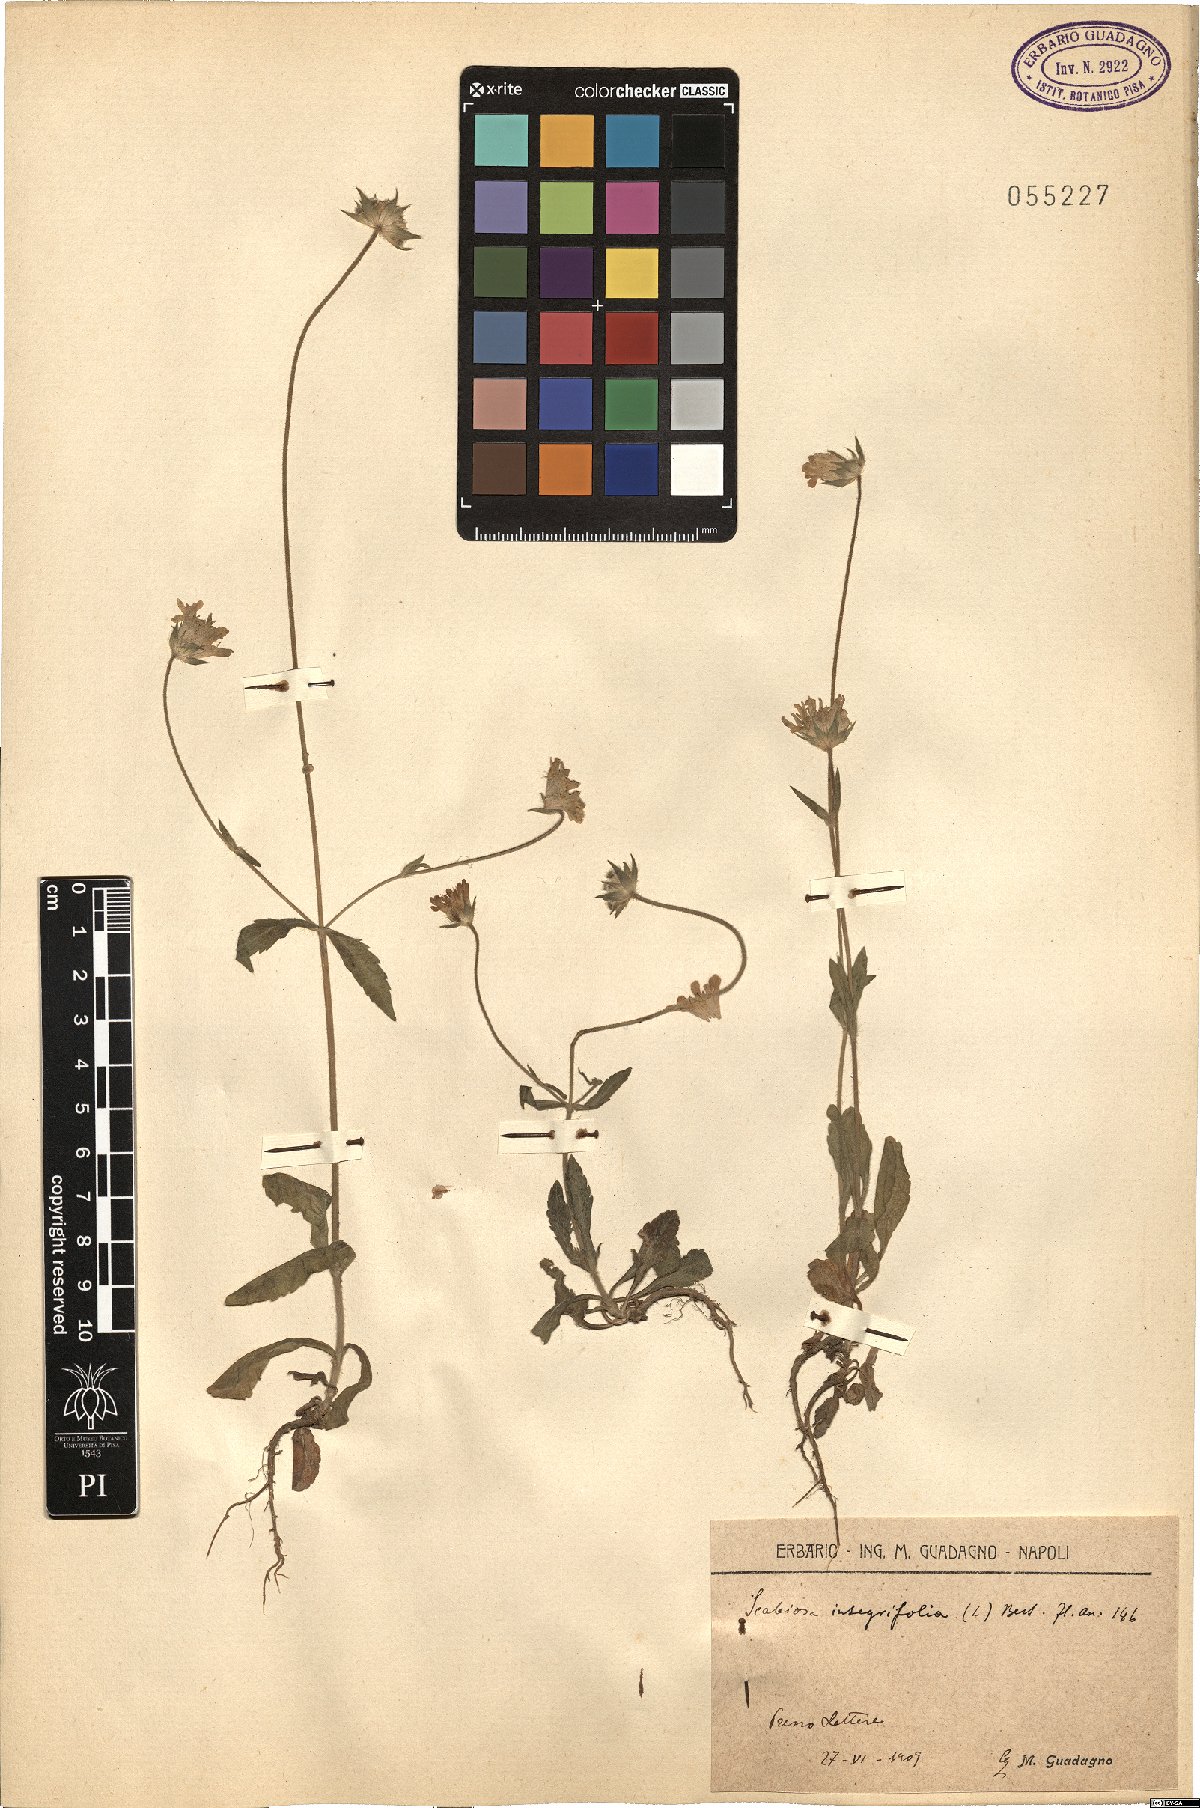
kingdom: Plantae
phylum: Tracheophyta
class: Magnoliopsida
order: Dipsacales
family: Caprifoliaceae
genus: Knautia
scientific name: Knautia integrifolia
